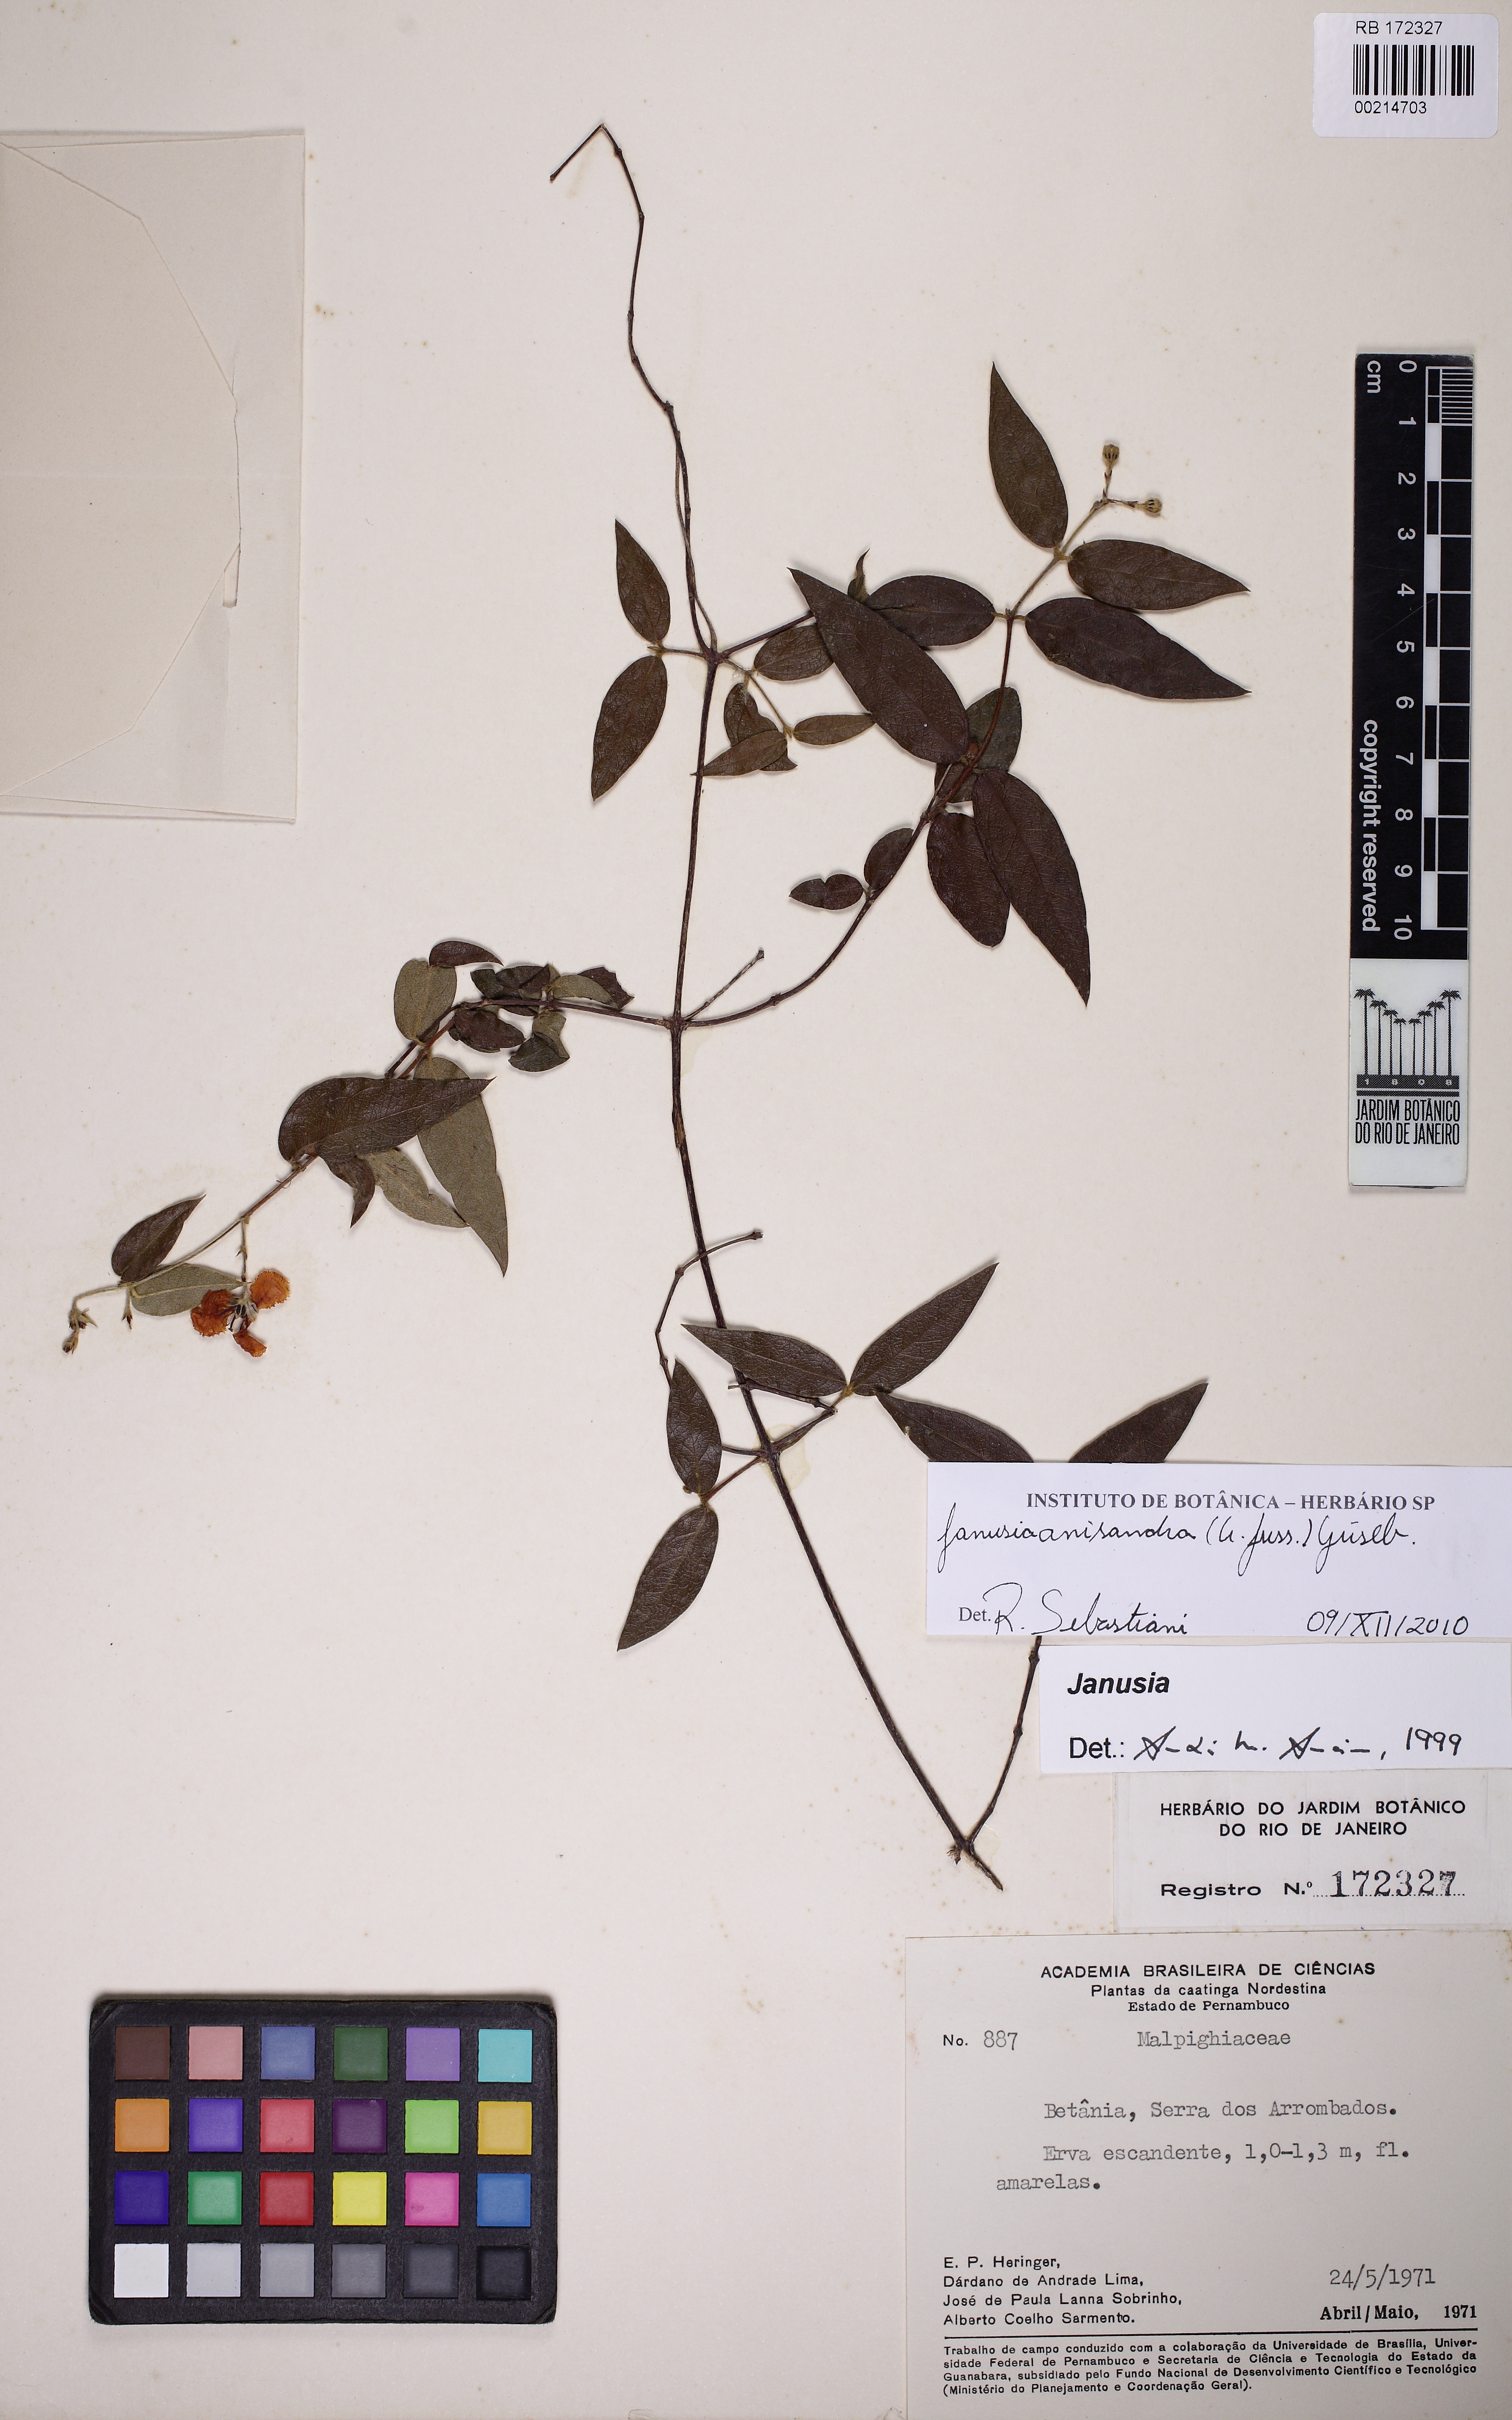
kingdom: Plantae
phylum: Tracheophyta
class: Magnoliopsida
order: Malpighiales
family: Malpighiaceae
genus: Janusia
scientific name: Janusia anisandra
